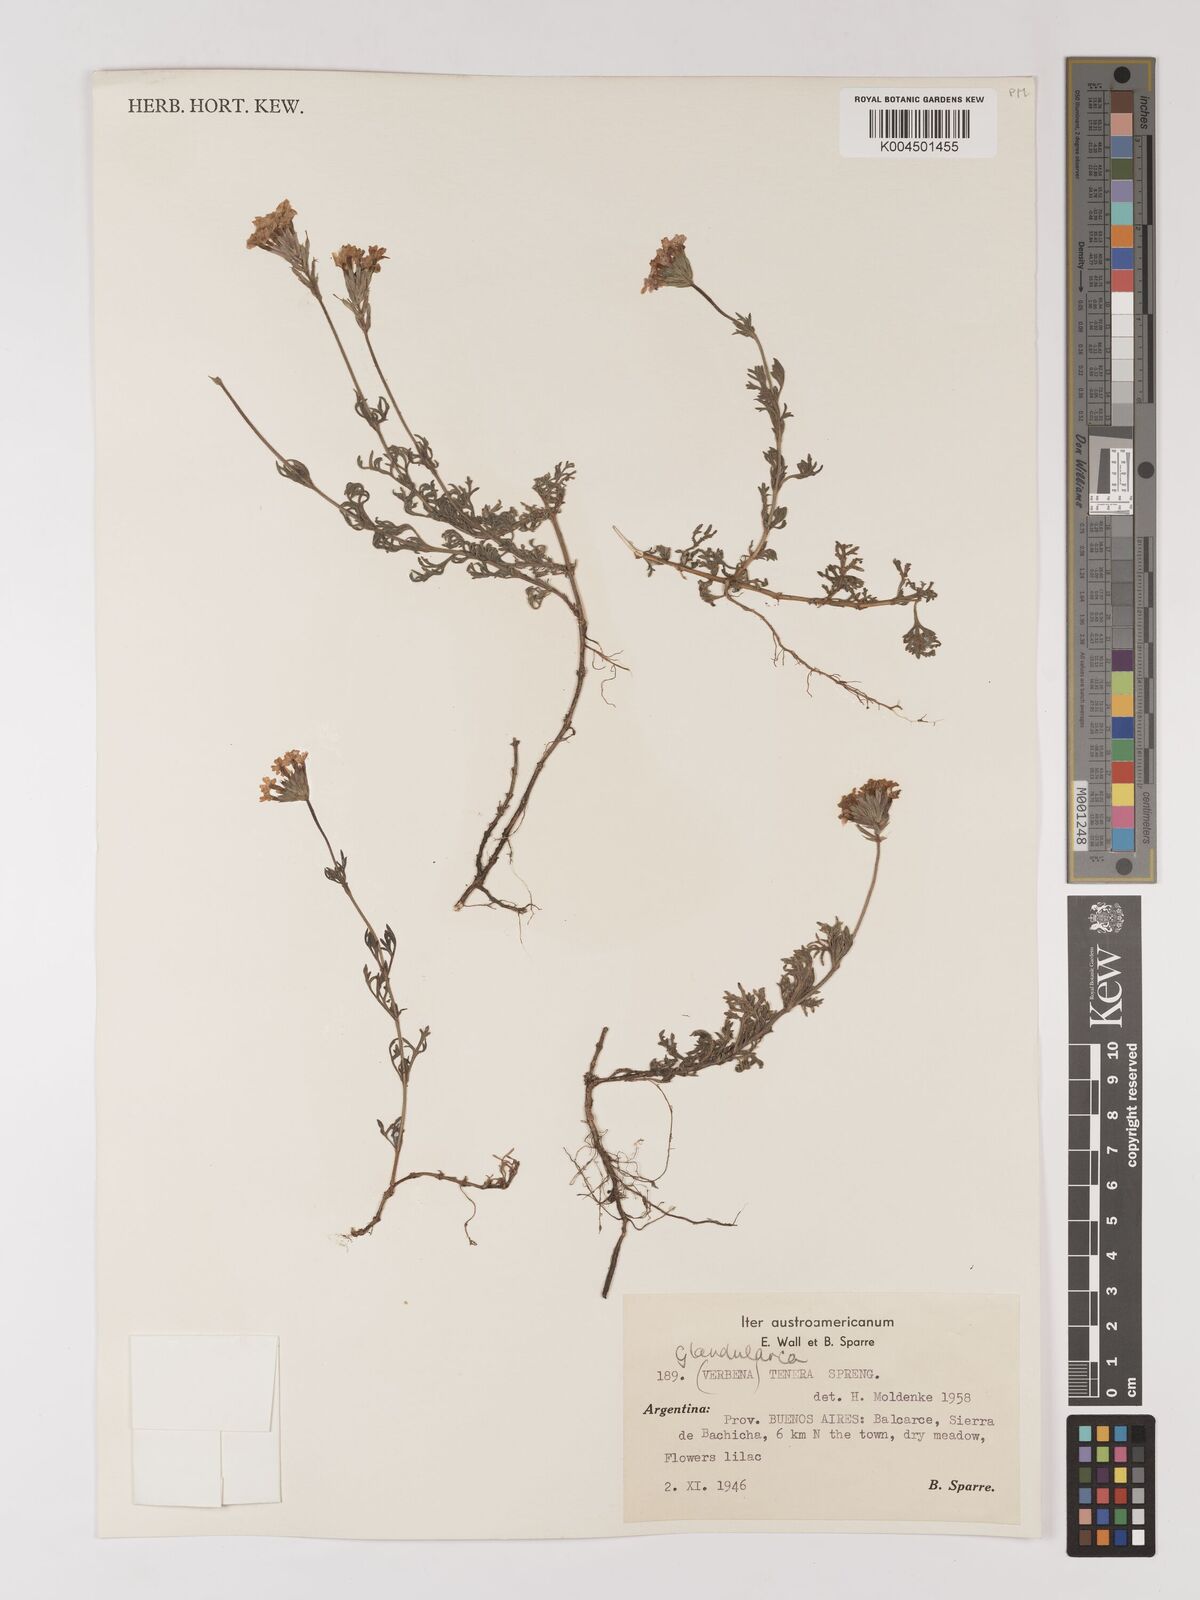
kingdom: Plantae
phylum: Tracheophyta
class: Magnoliopsida
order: Lamiales
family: Verbenaceae
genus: Verbena
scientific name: Verbena tenera
